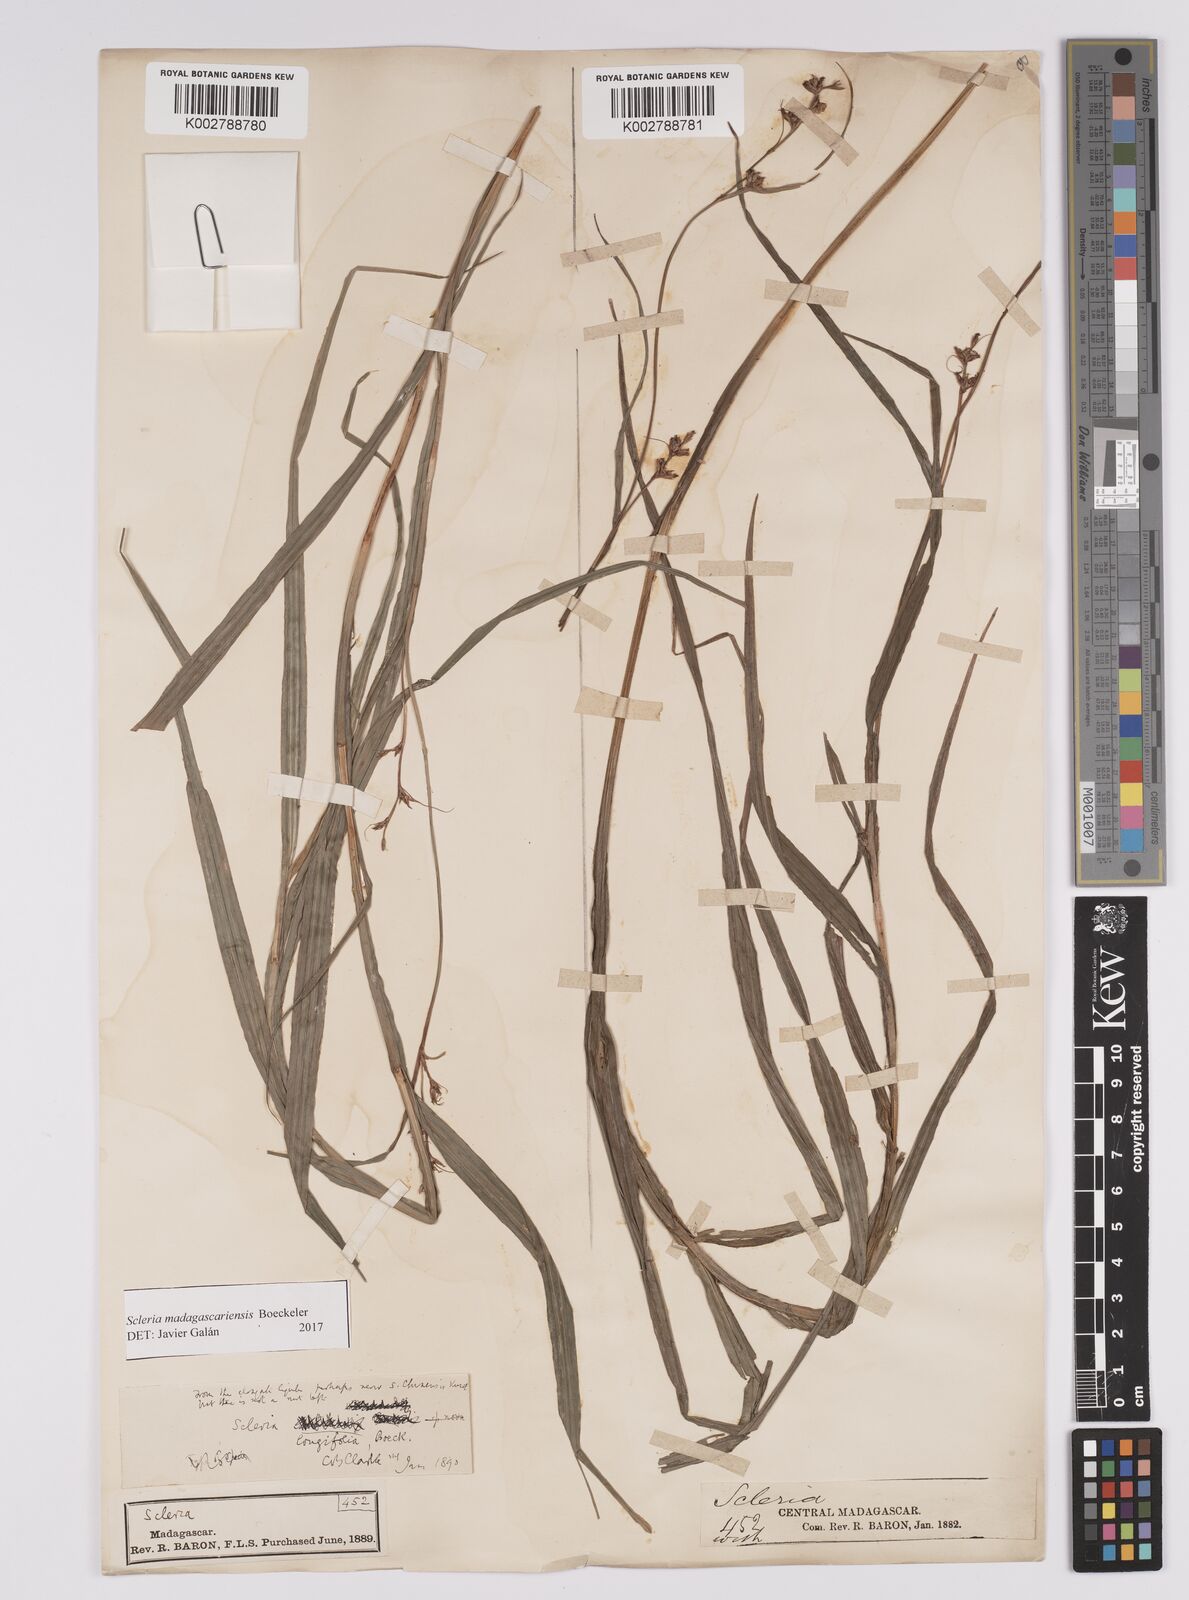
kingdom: Plantae
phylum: Tracheophyta
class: Liliopsida
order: Poales
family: Cyperaceae
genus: Scleria
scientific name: Scleria madagascariensis
